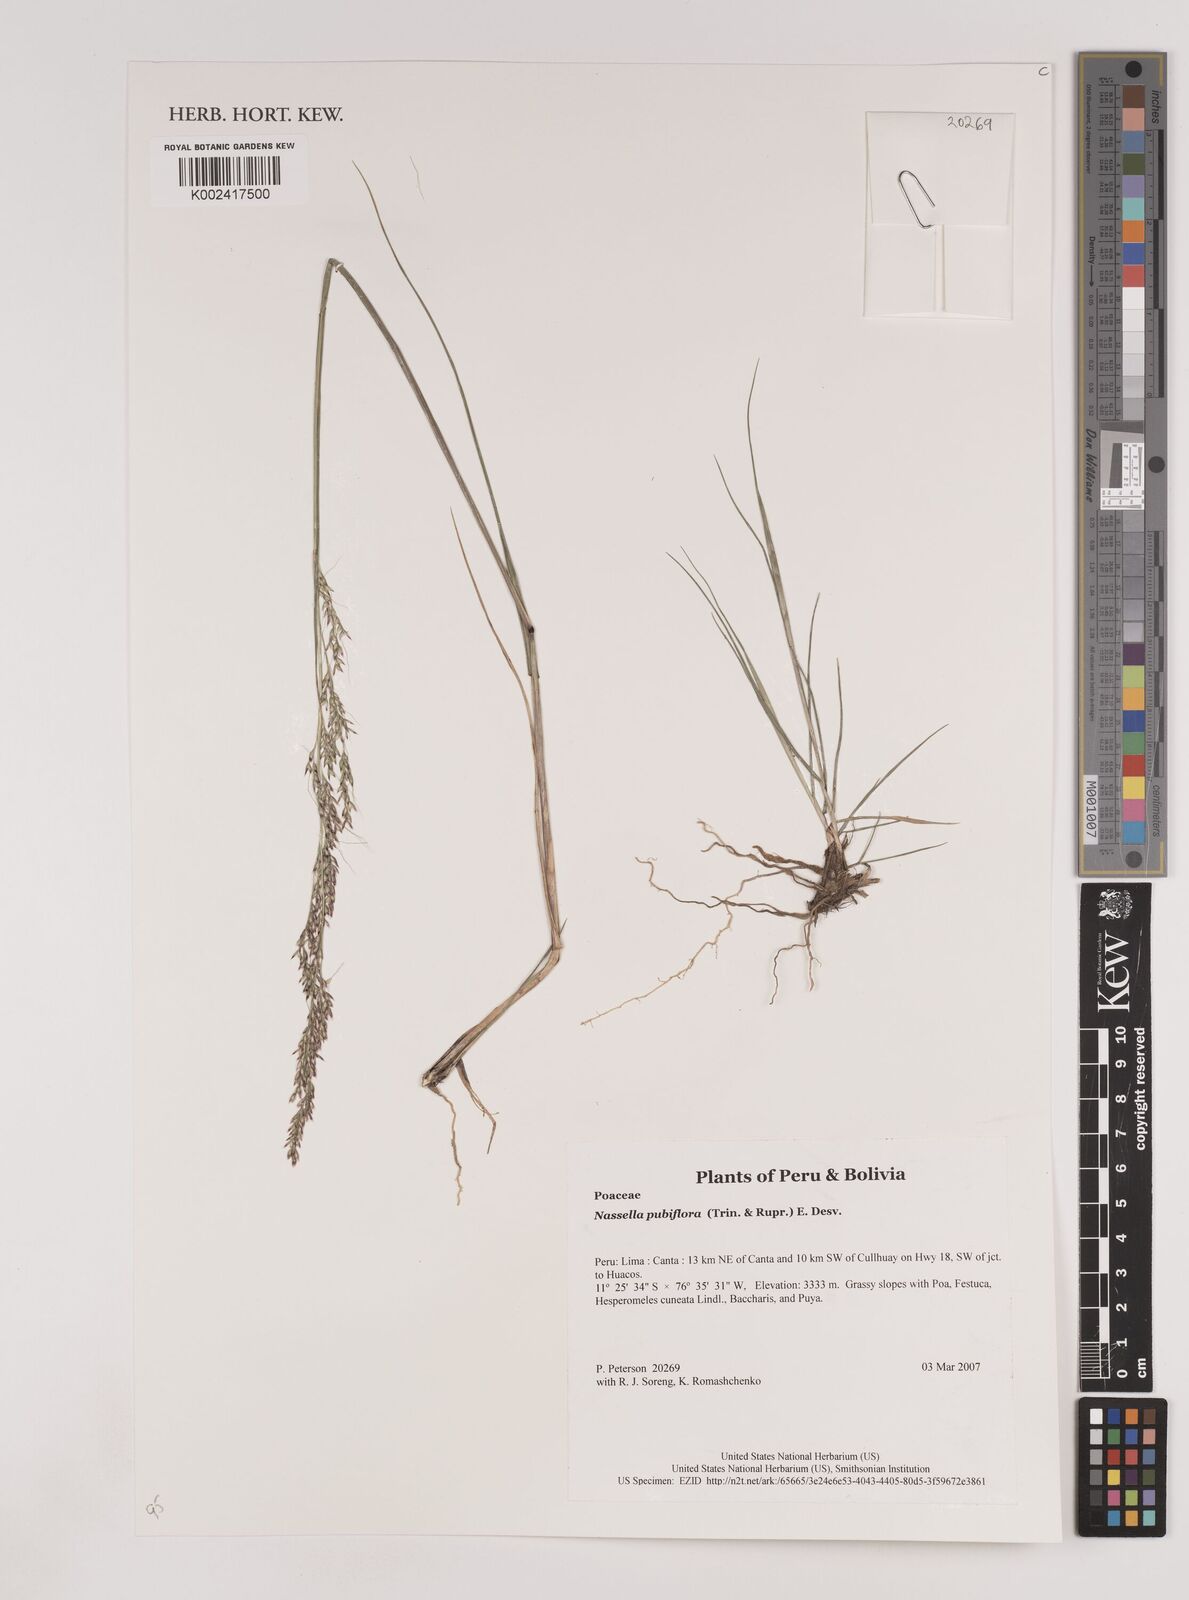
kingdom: Plantae
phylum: Tracheophyta
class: Liliopsida
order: Poales
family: Poaceae
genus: Nassella
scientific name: Nassella pubiflora
